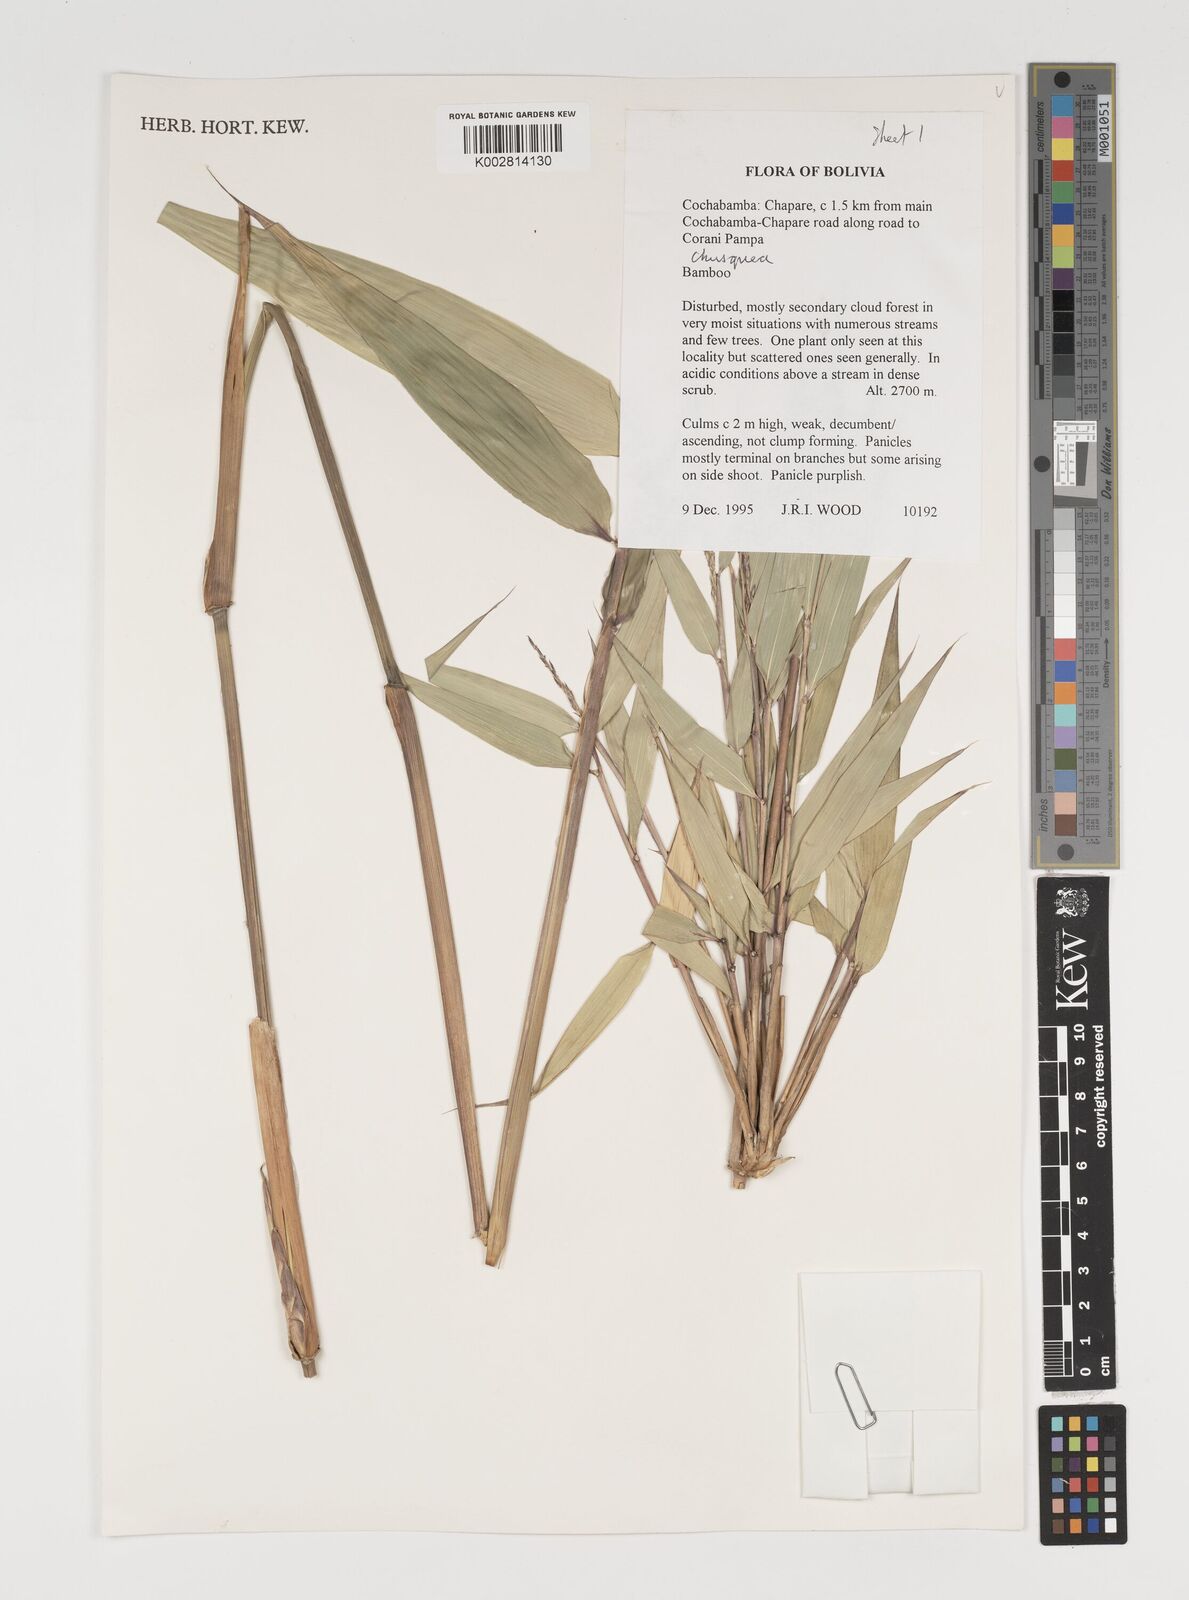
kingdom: Plantae
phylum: Tracheophyta
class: Liliopsida
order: Poales
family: Poaceae
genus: Chusquea
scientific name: Chusquea
